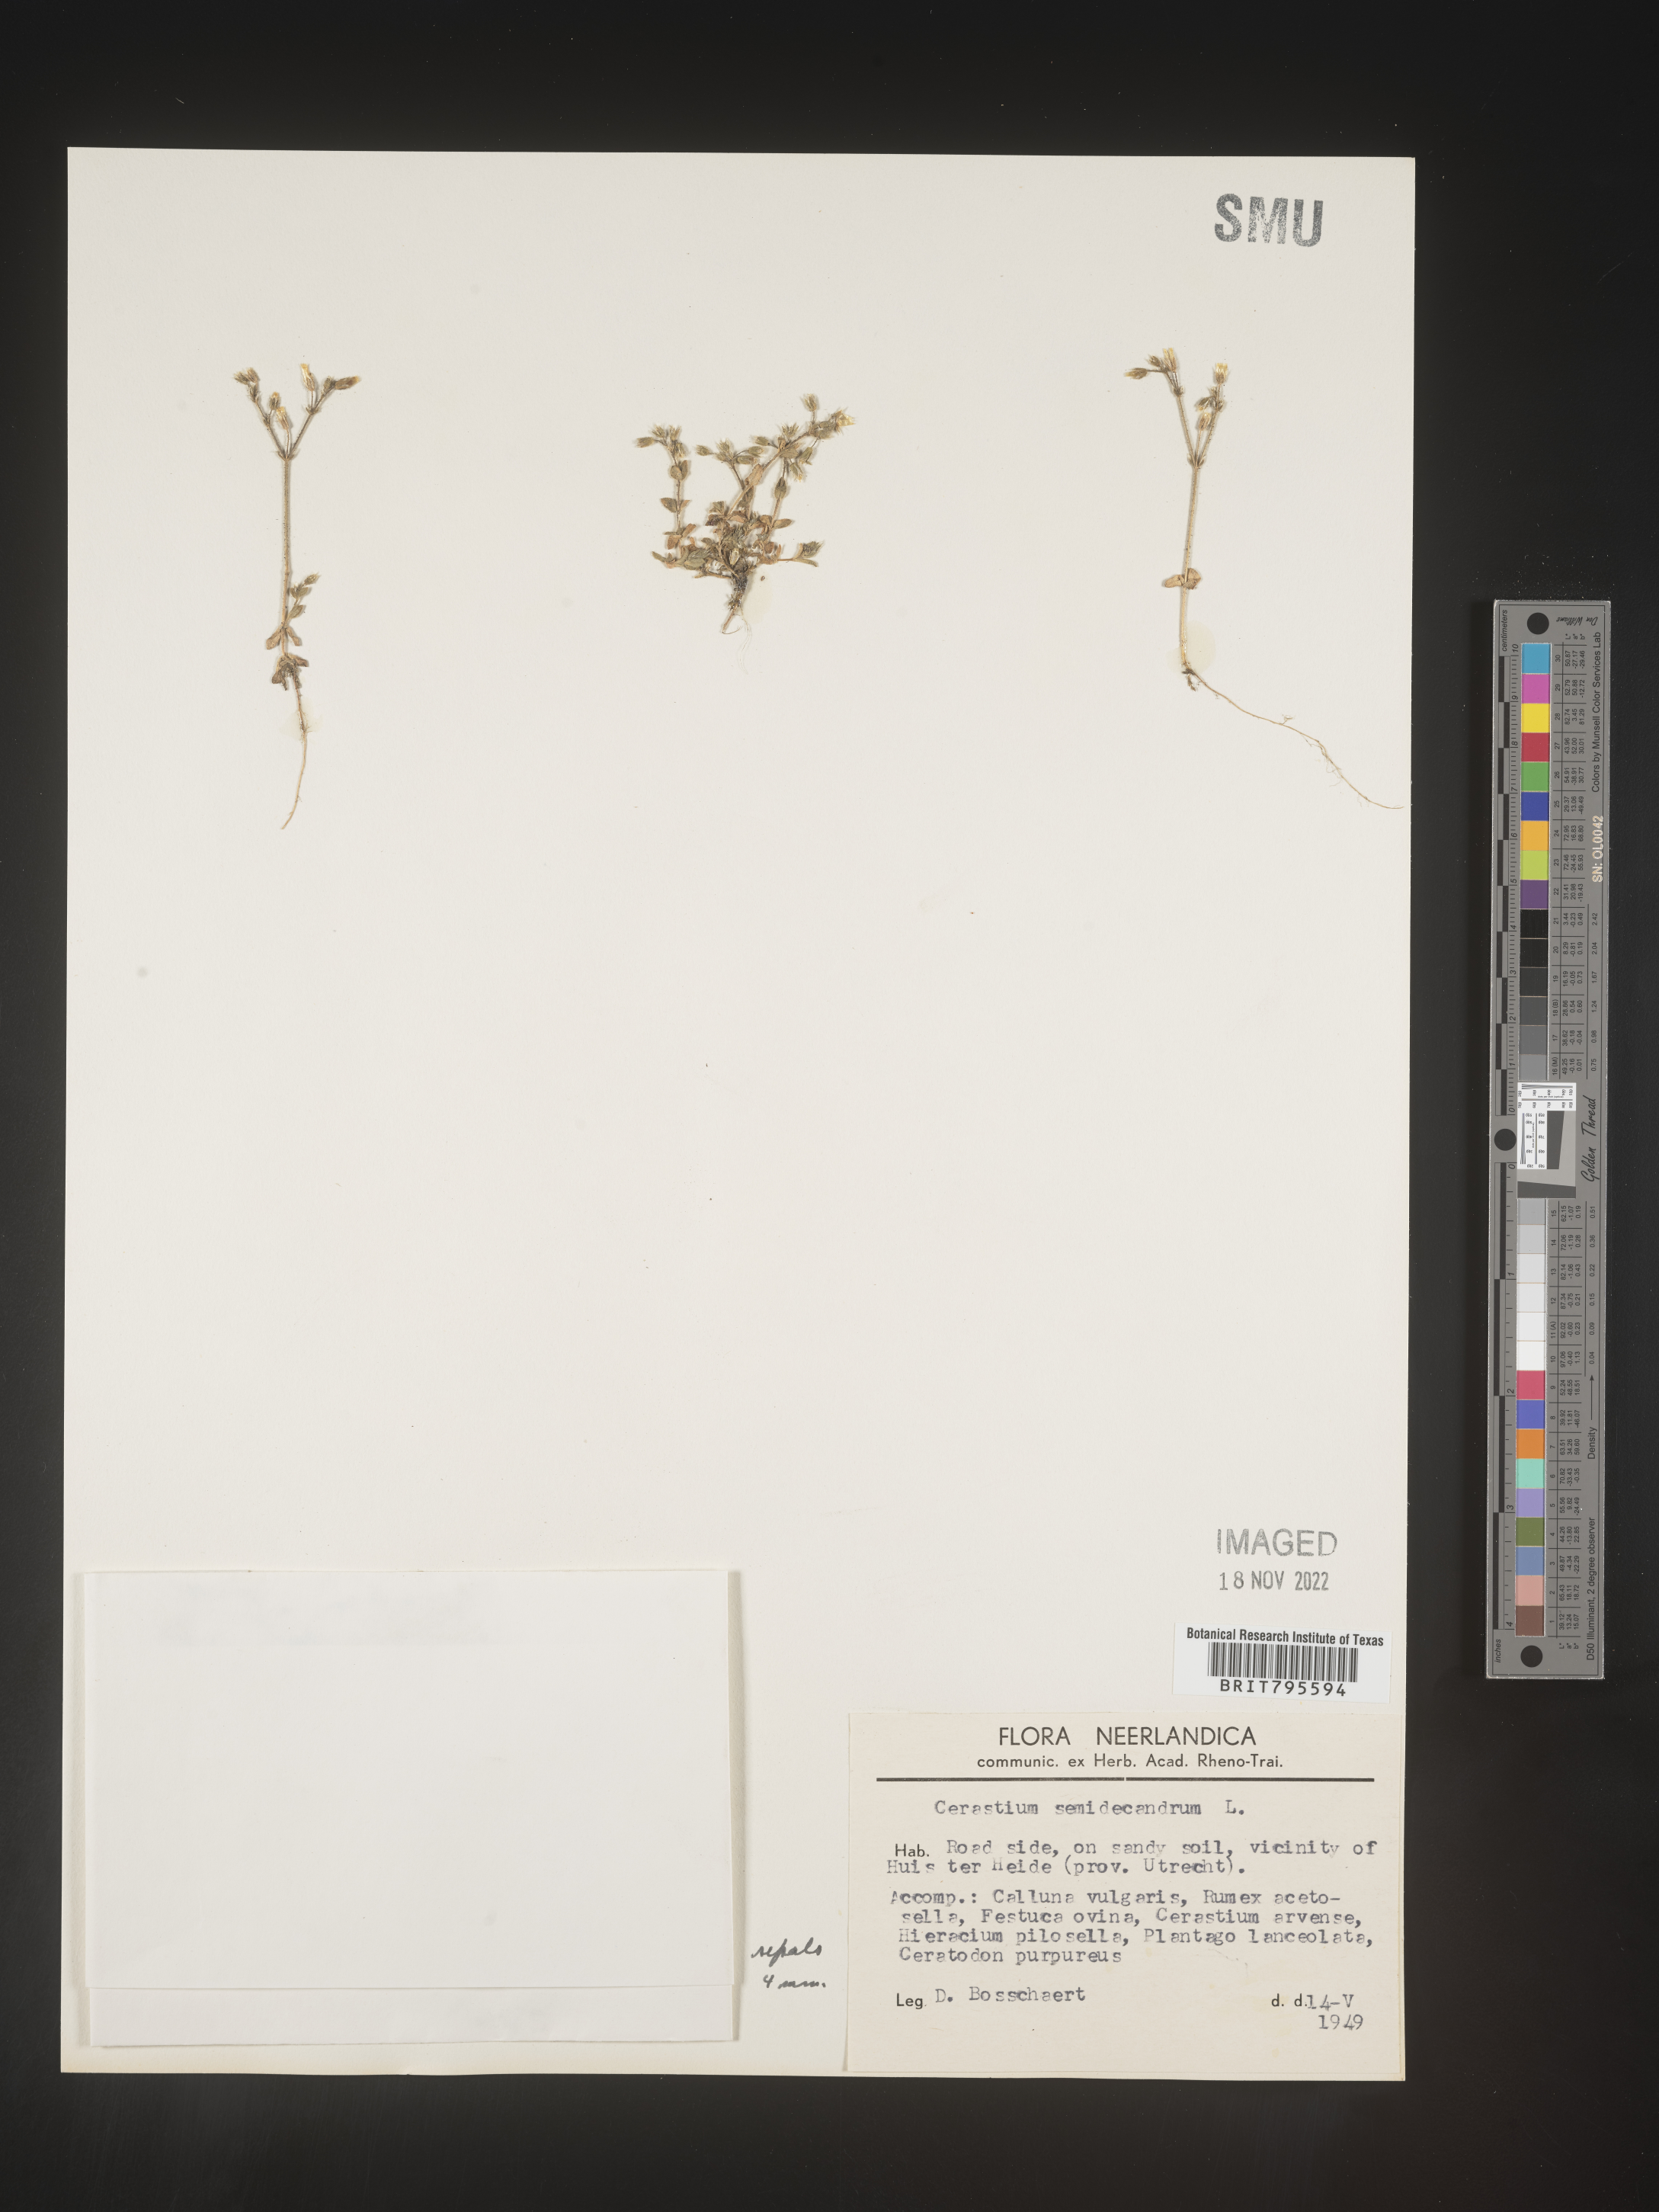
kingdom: Plantae
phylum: Tracheophyta
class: Magnoliopsida
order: Caryophyllales
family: Caryophyllaceae
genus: Cerastium
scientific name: Cerastium
